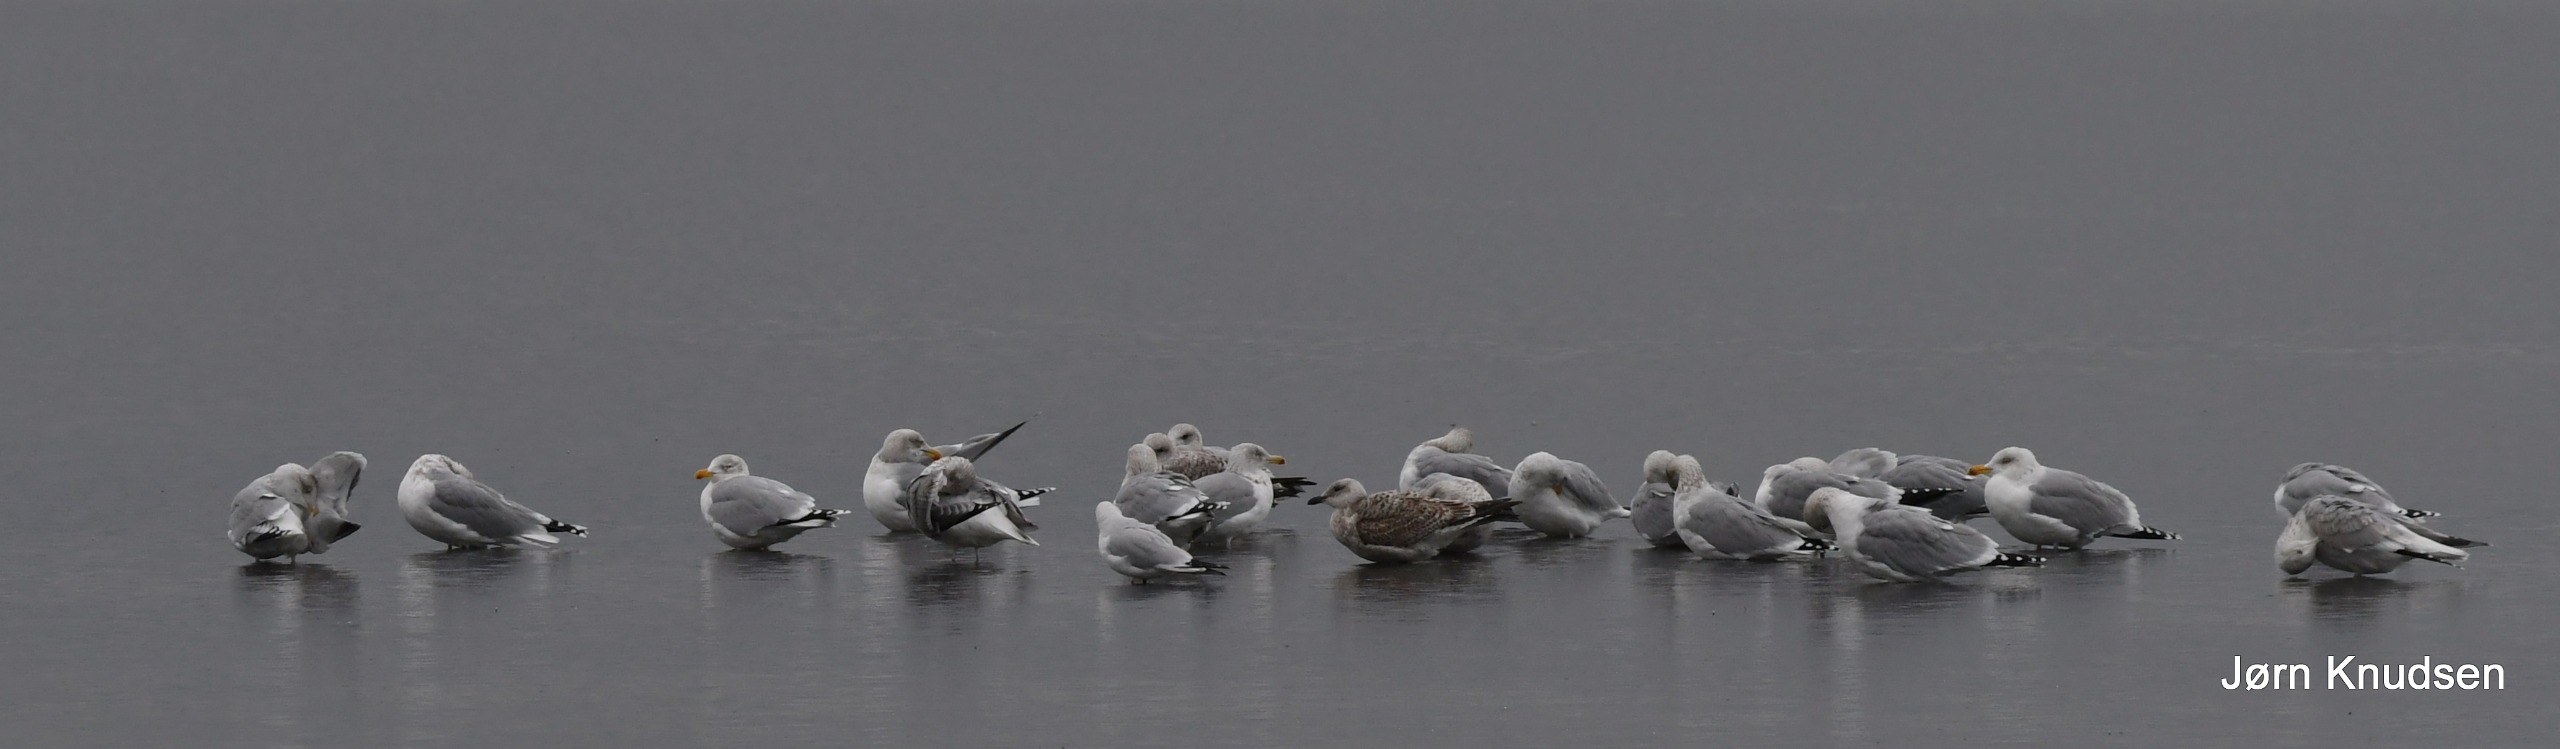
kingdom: Animalia
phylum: Chordata
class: Aves
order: Charadriiformes
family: Laridae
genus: Larus
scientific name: Larus argentatus
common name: Sølvmåge
